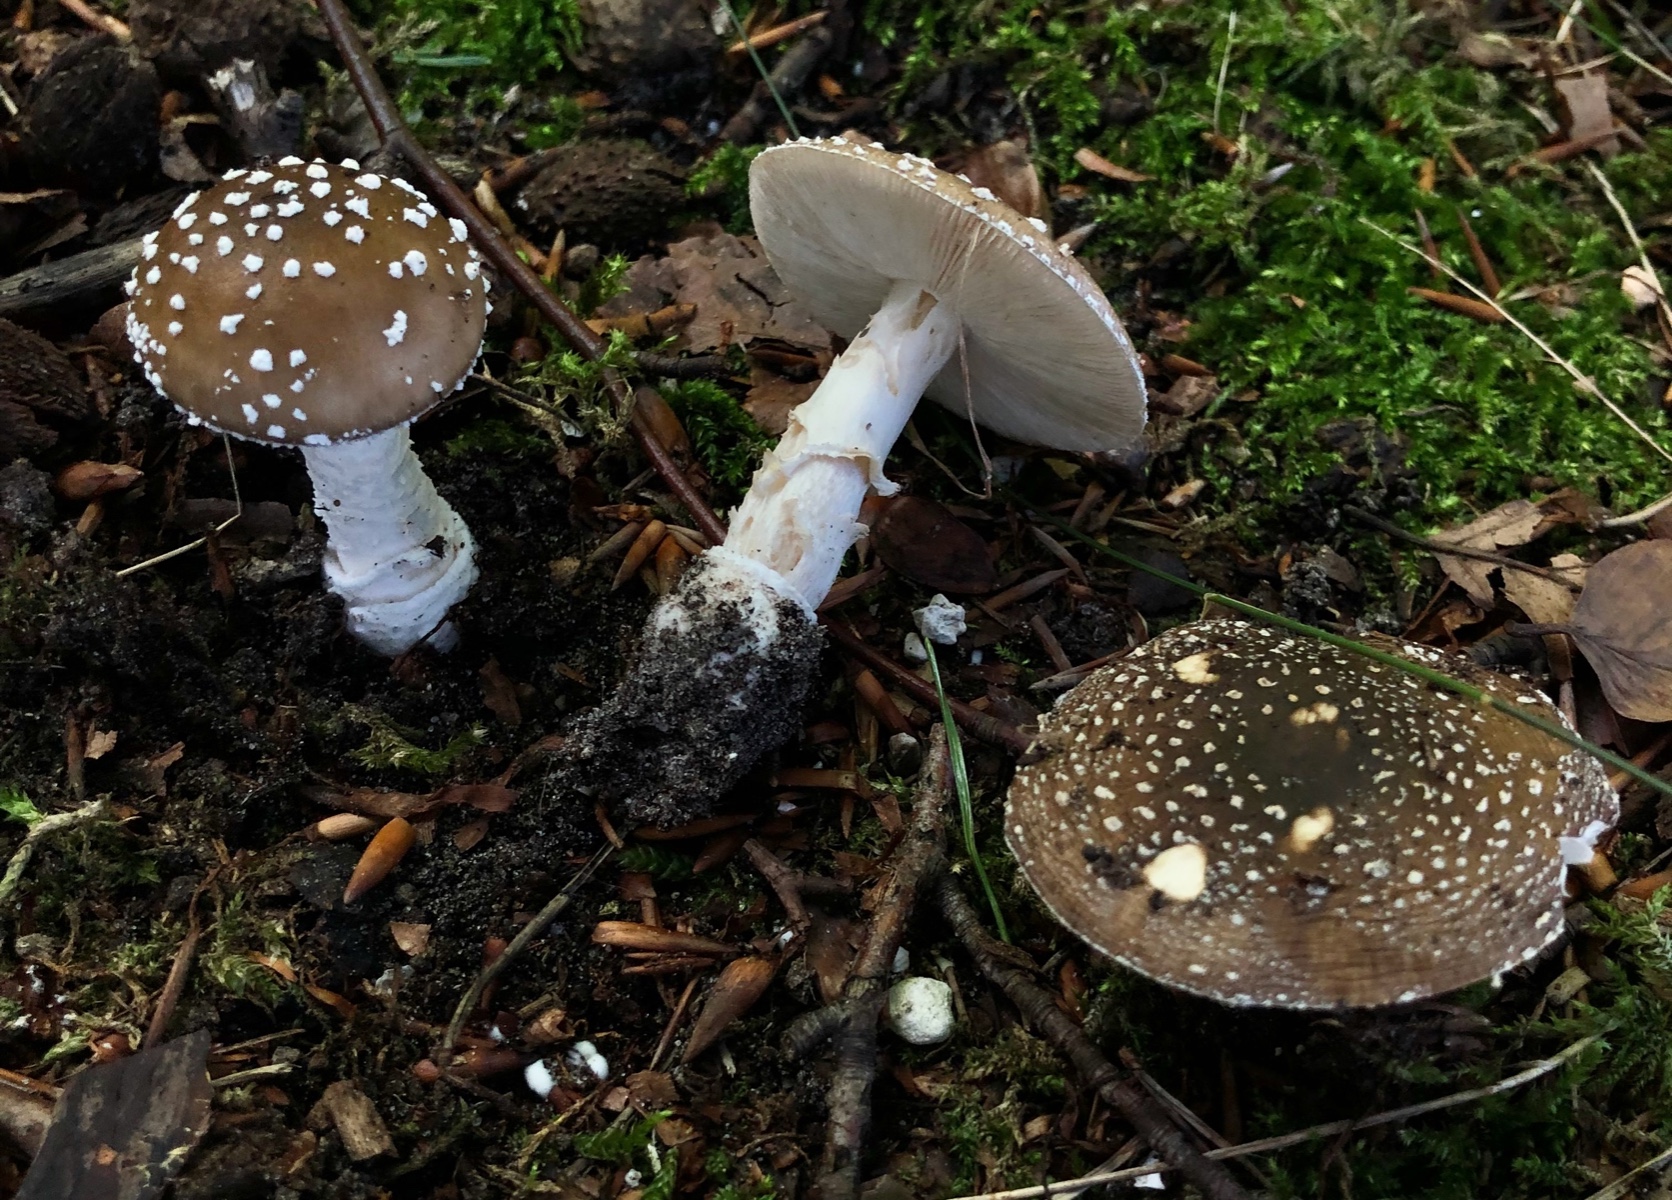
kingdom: Fungi
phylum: Basidiomycota
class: Agaricomycetes
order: Agaricales
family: Amanitaceae
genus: Amanita
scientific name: Amanita pantherina
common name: panter-fluesvamp
